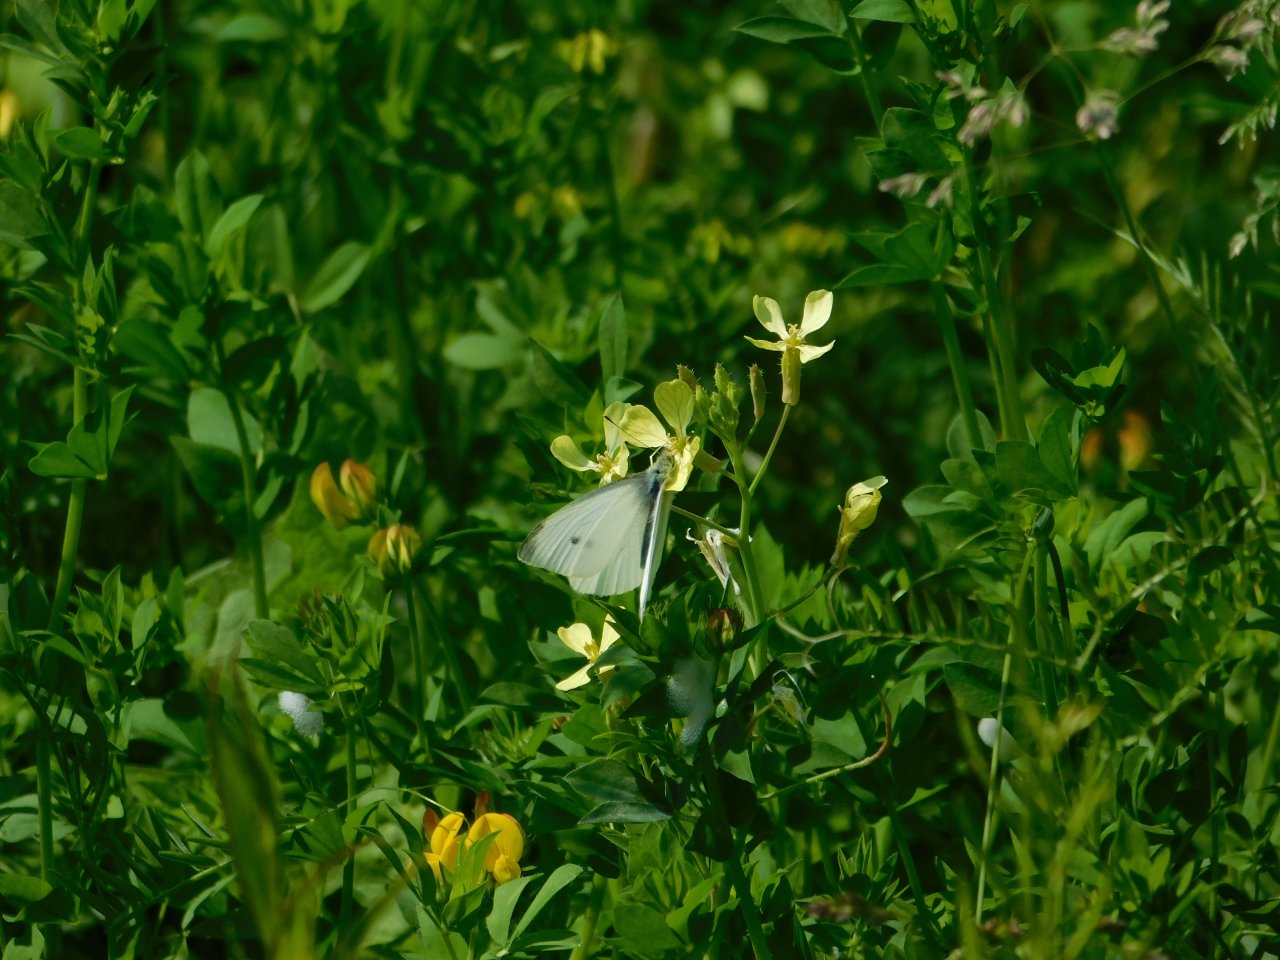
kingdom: Animalia
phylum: Arthropoda
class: Insecta
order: Lepidoptera
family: Pieridae
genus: Pieris
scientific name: Pieris rapae
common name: Cabbage White
